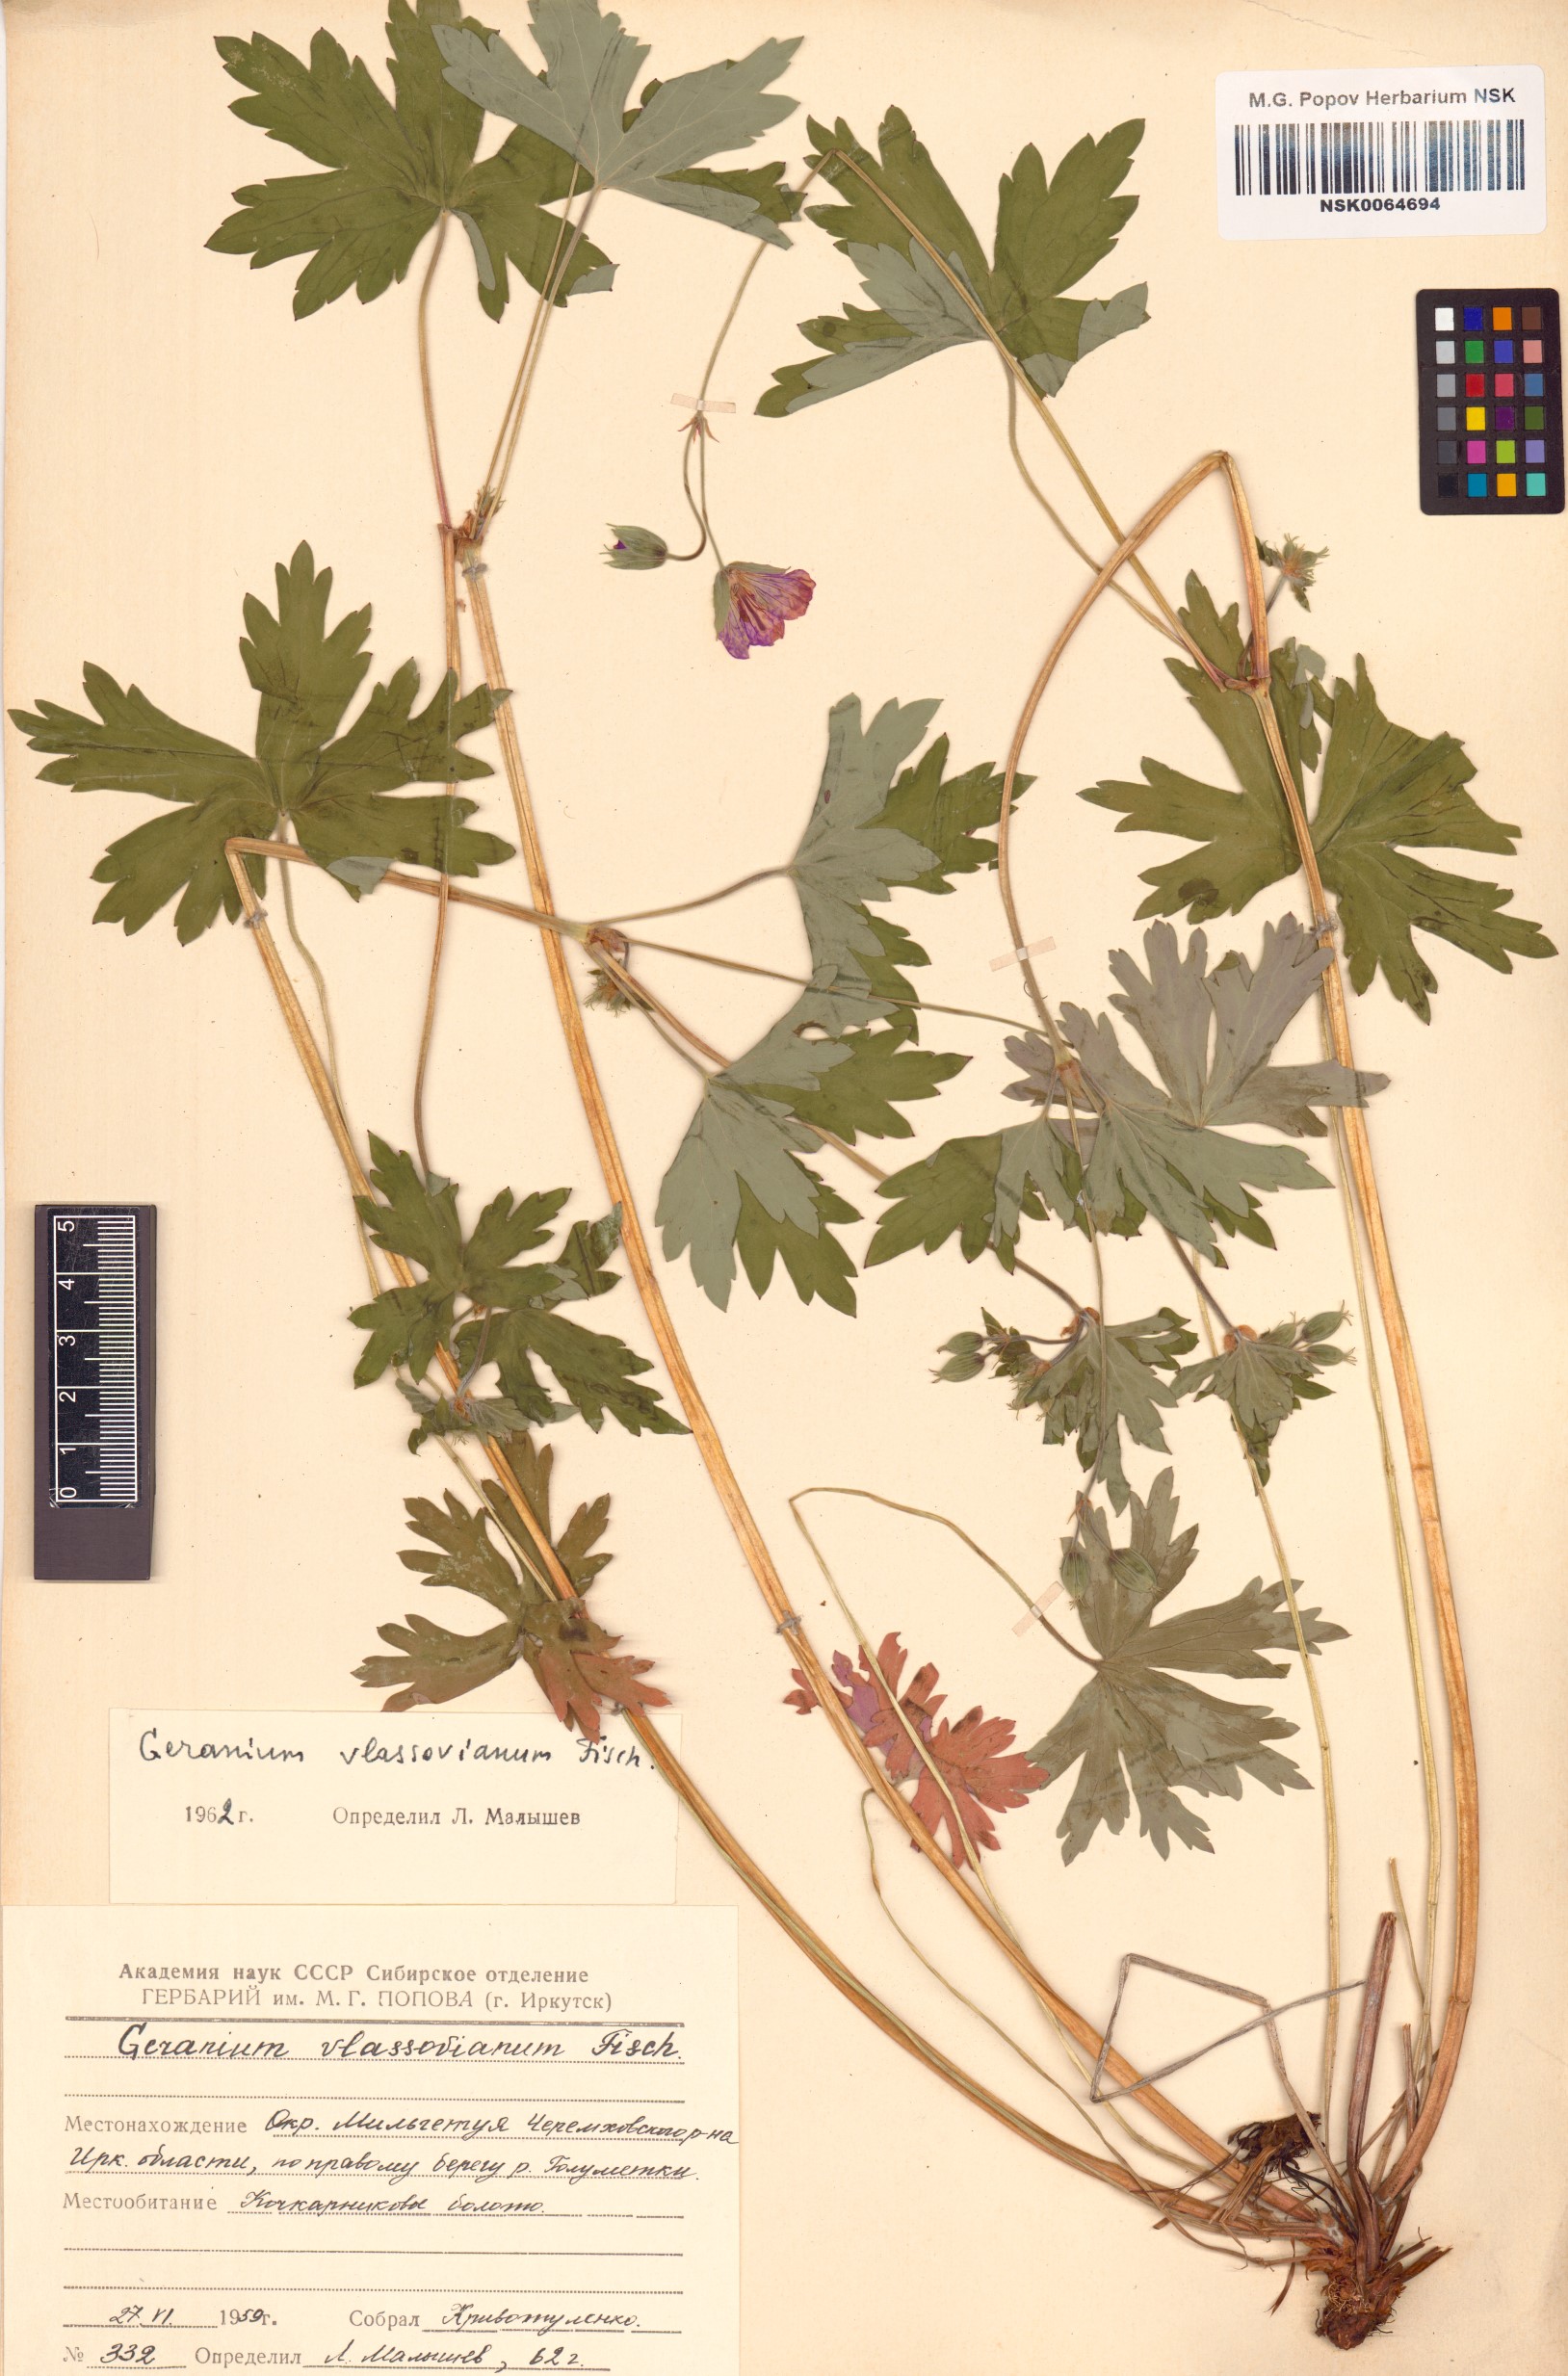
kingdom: Plantae
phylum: Tracheophyta
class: Magnoliopsida
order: Geraniales
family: Geraniaceae
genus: Geranium
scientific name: Geranium wlassovianum
